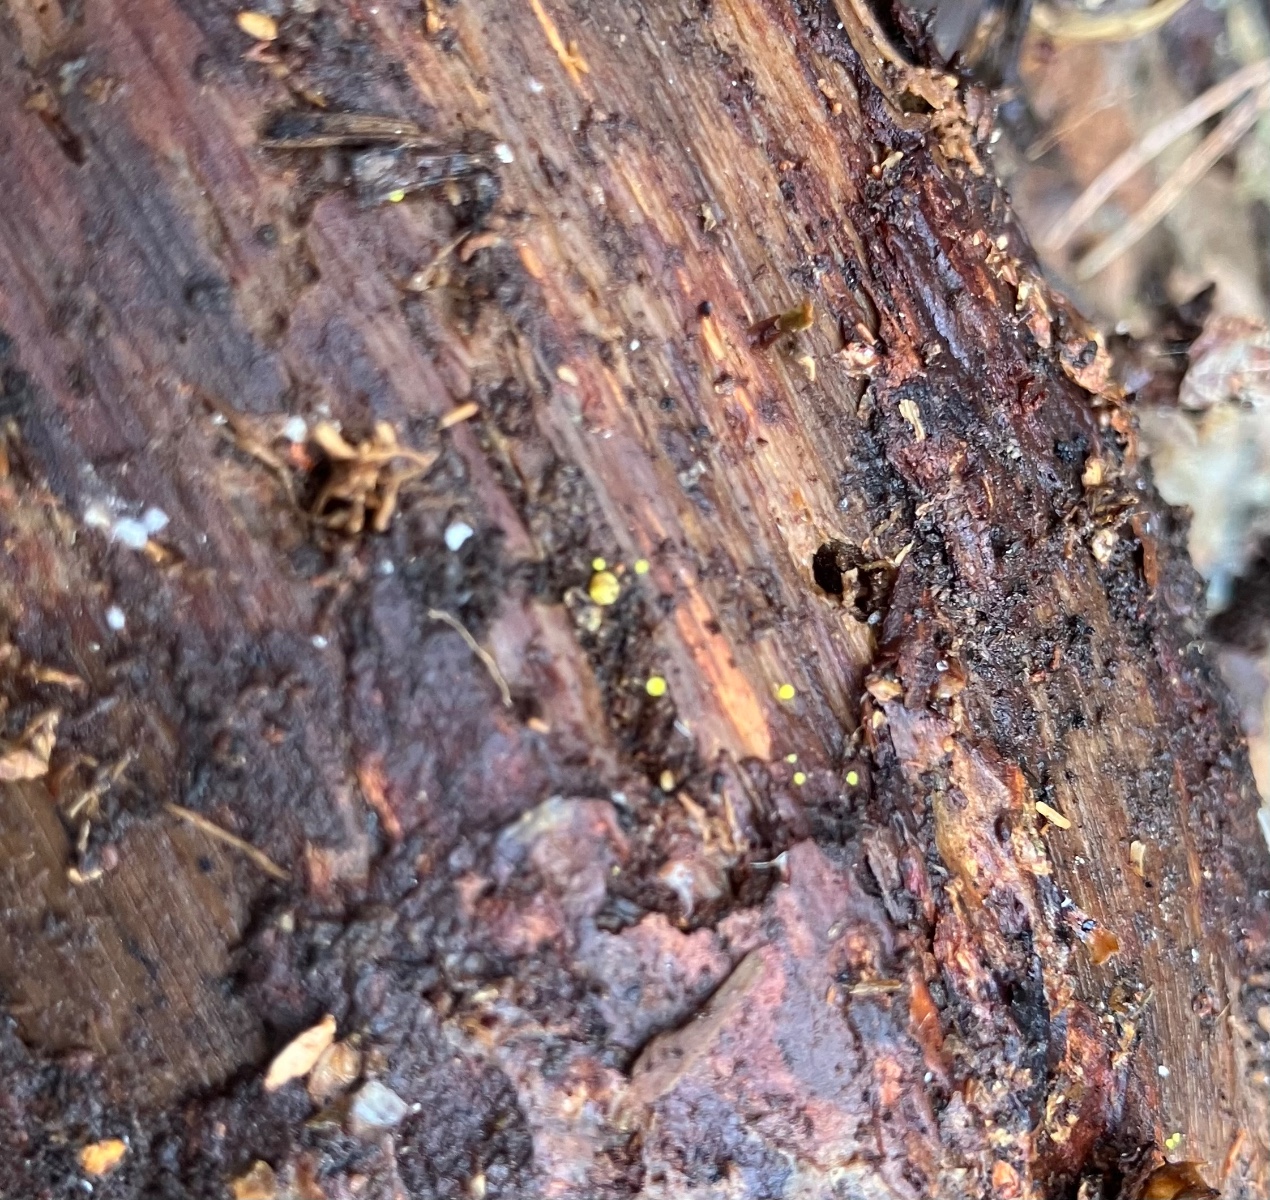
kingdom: Fungi
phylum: Ascomycota
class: Leotiomycetes
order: Helotiales
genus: Lemalis
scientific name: Lemalis aurea
